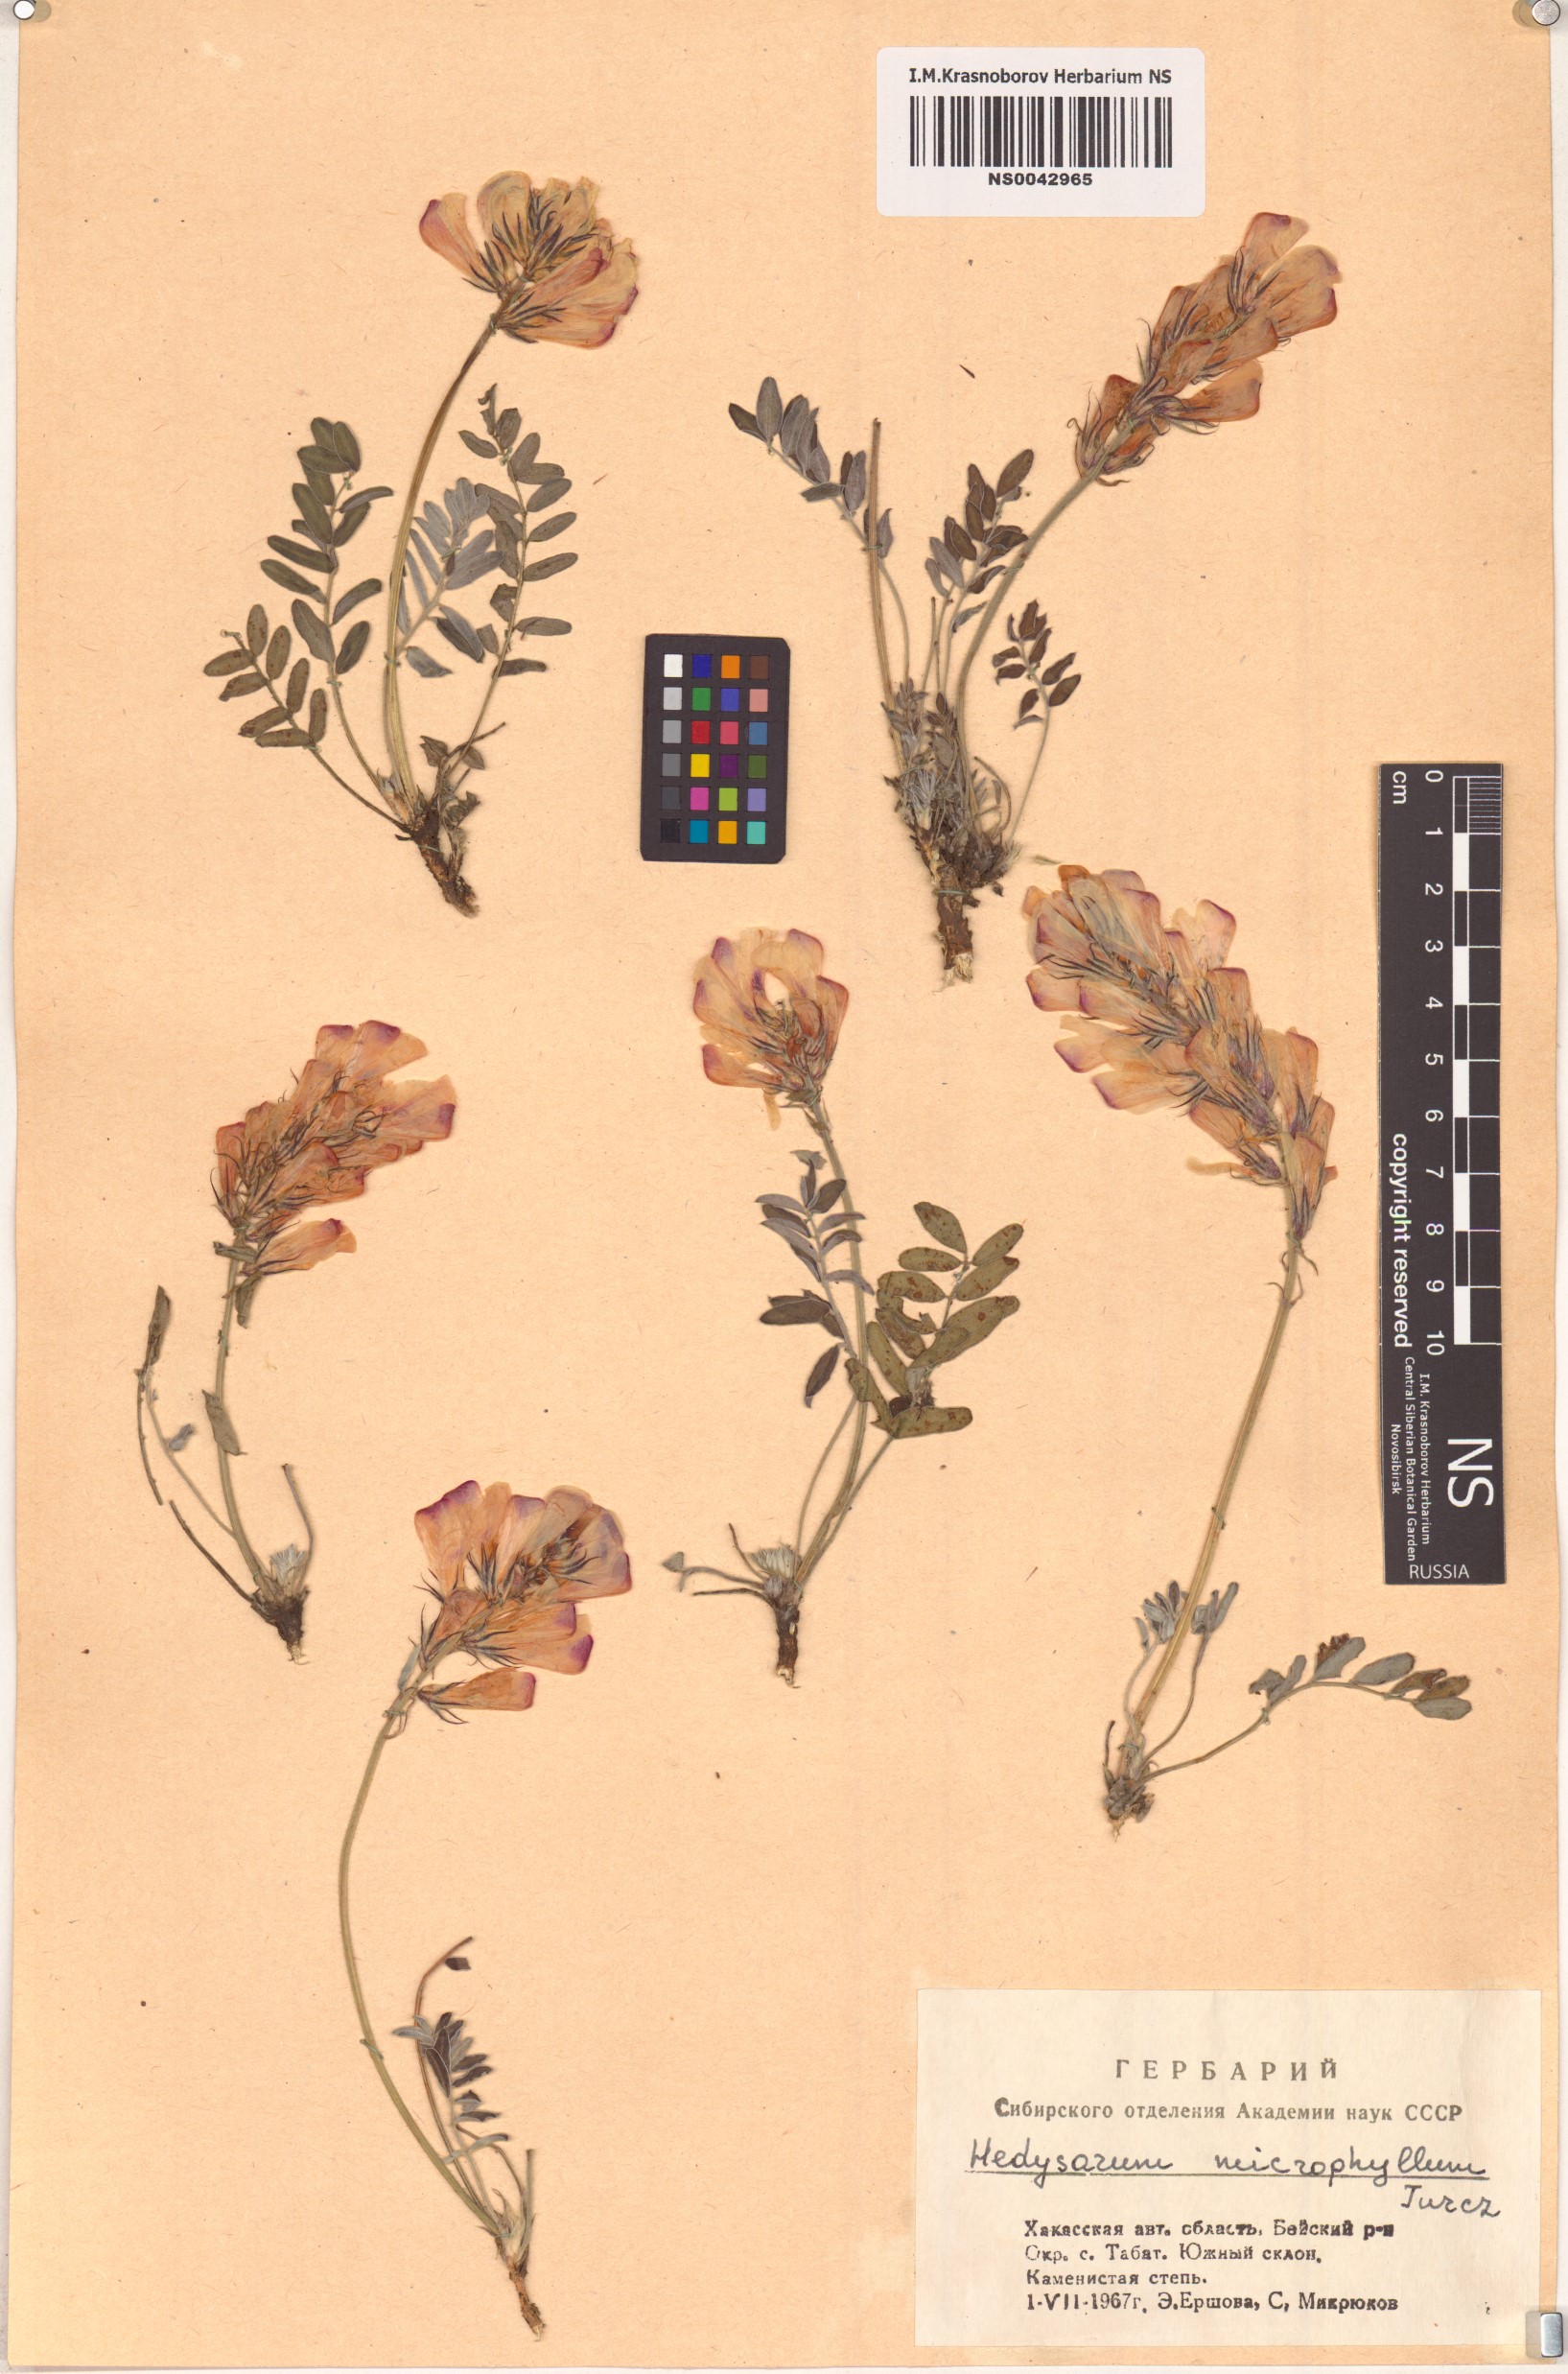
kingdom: Plantae
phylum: Tracheophyta
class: Magnoliopsida
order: Fabales
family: Fabaceae
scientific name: Fabaceae
